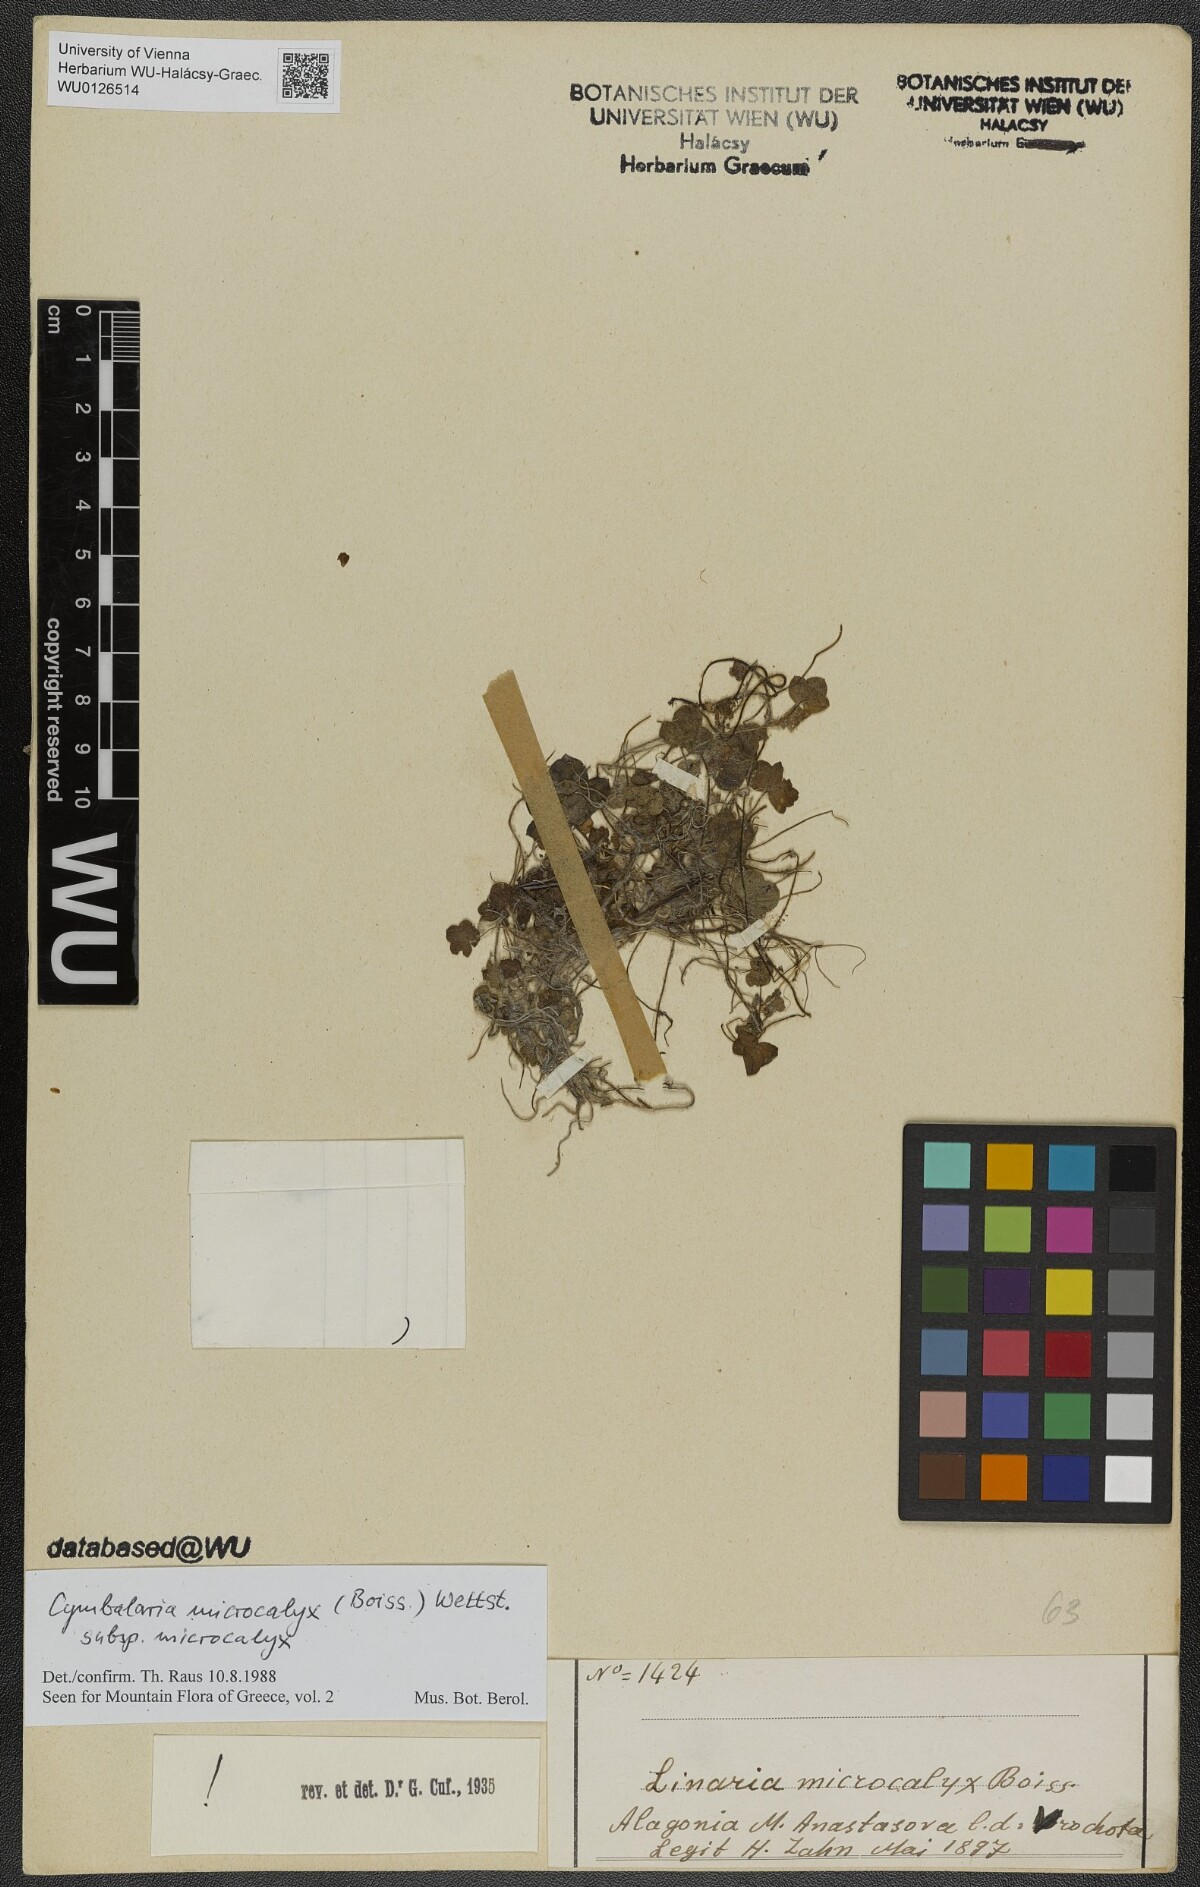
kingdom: Plantae
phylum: Tracheophyta
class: Magnoliopsida
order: Lamiales
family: Plantaginaceae
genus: Cymbalaria
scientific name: Cymbalaria microcalyx
